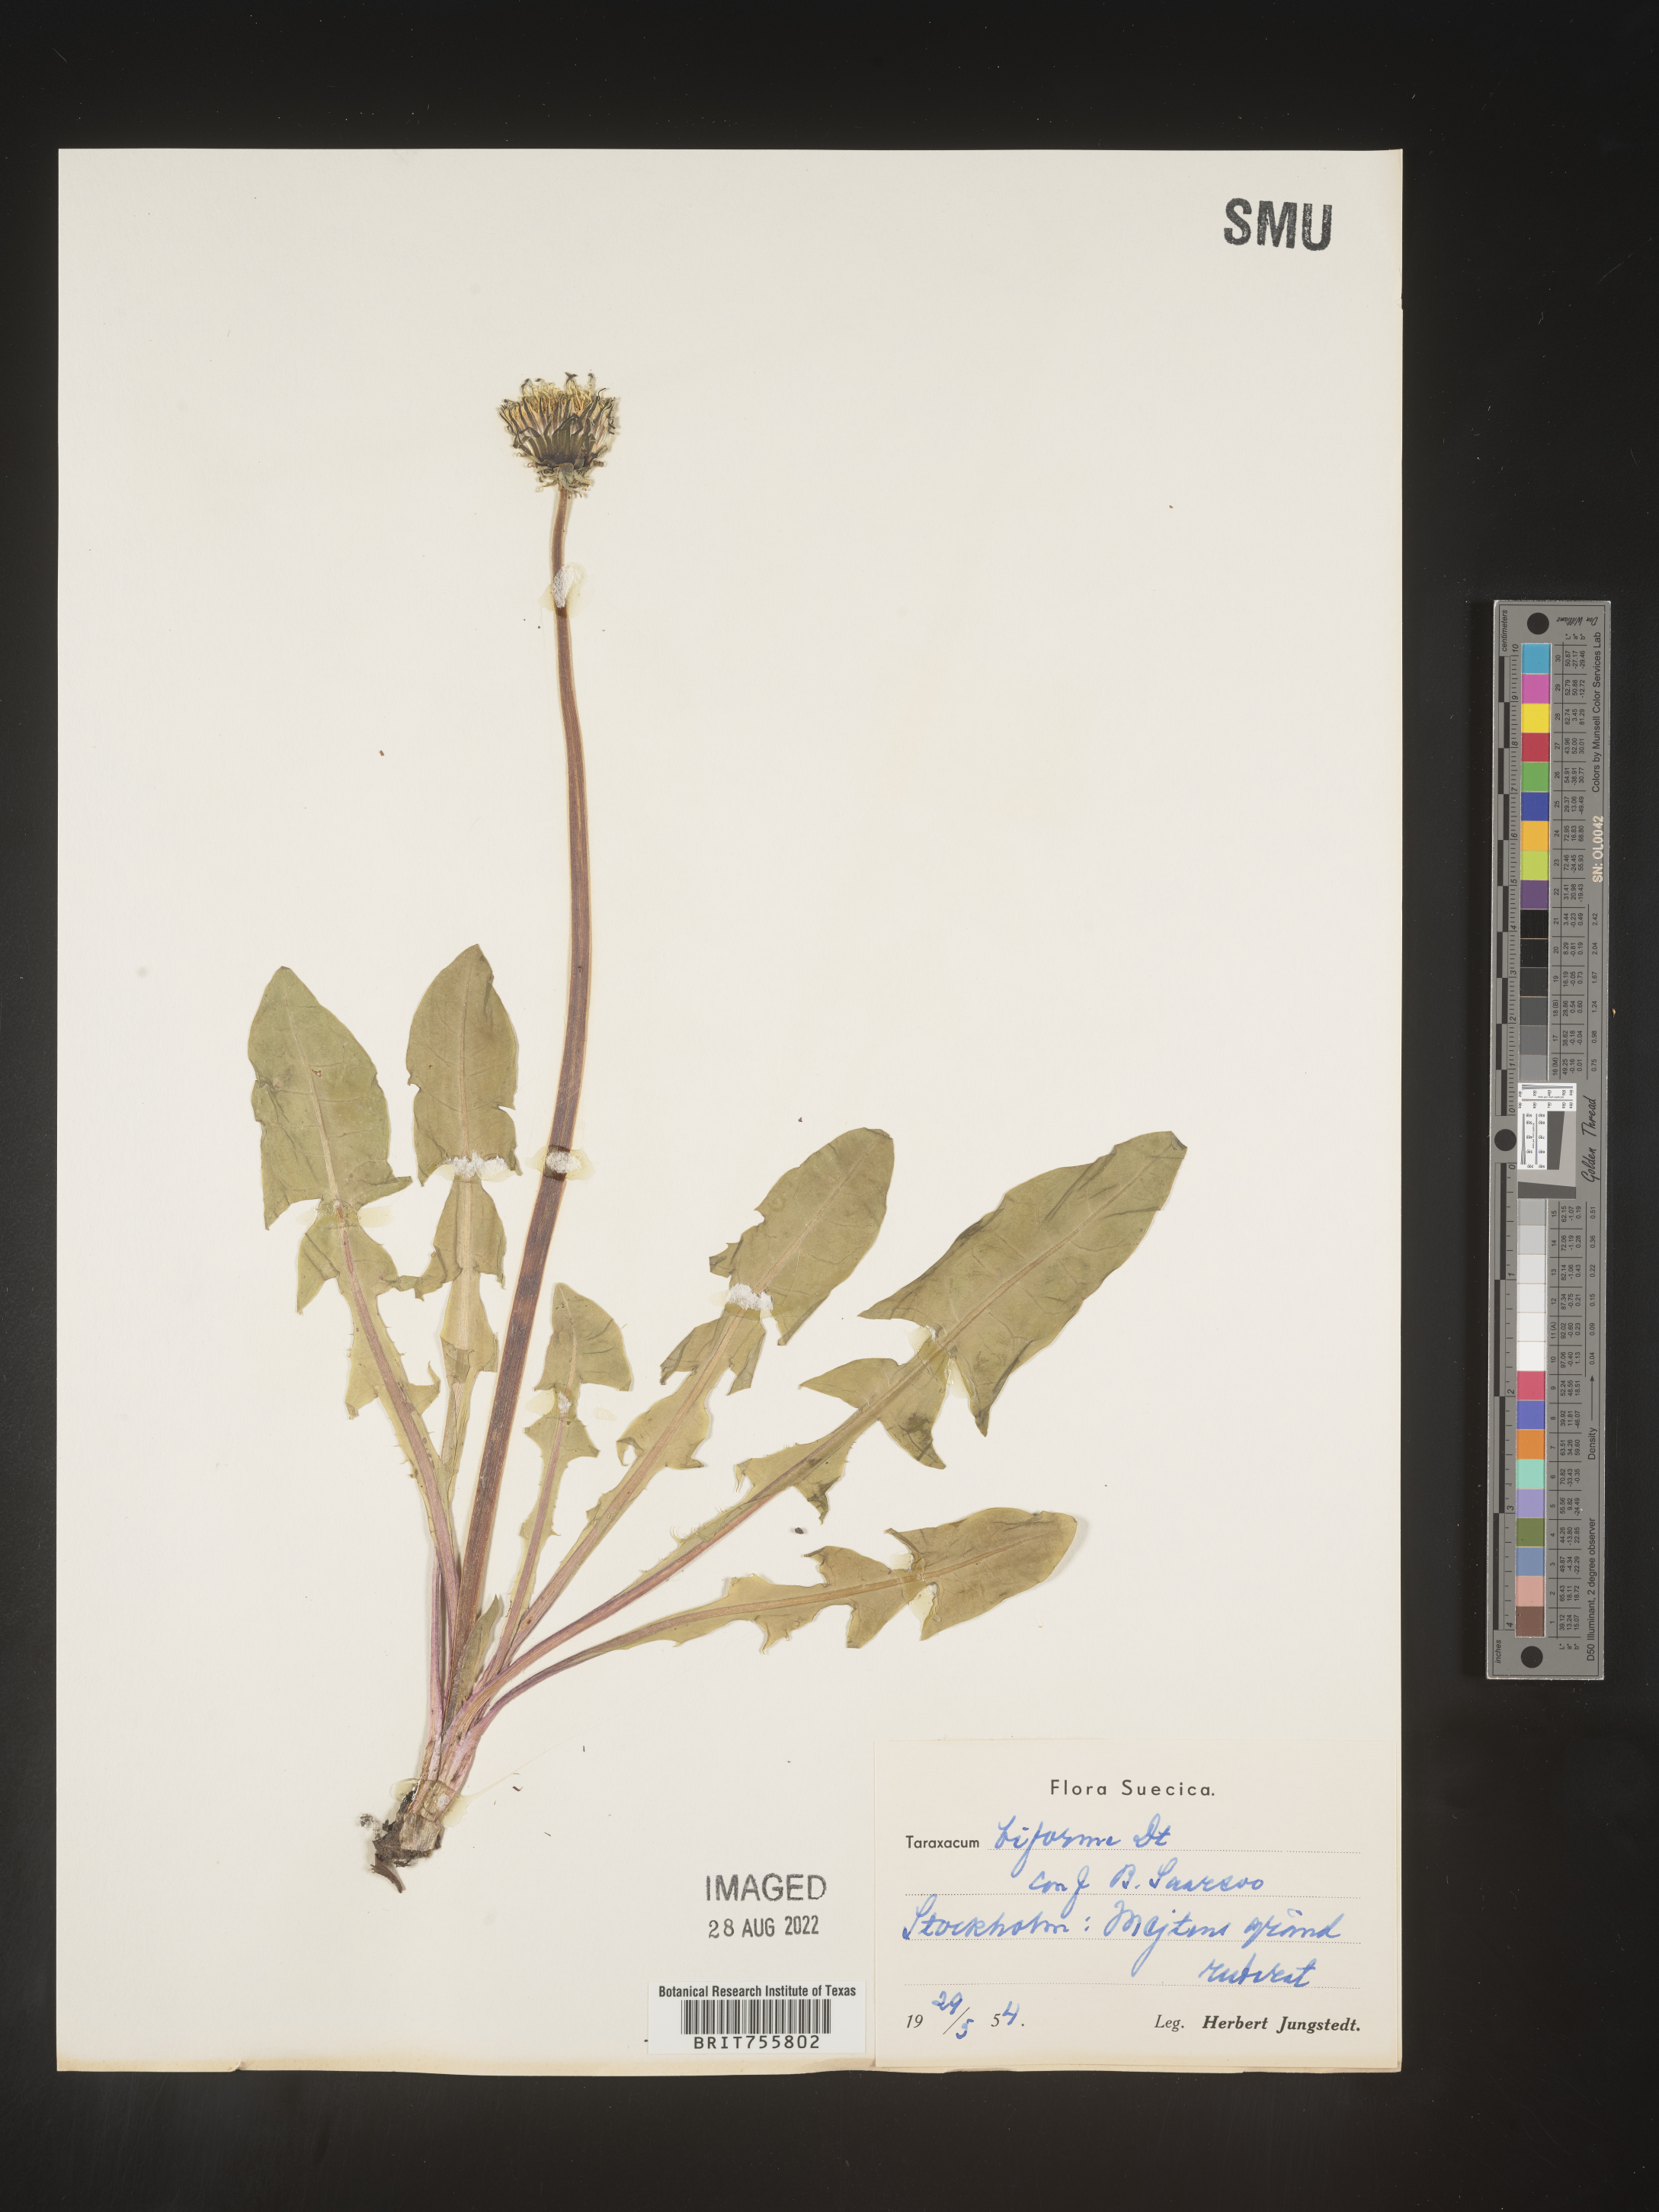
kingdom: Plantae
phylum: Tracheophyta
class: Magnoliopsida
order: Asterales
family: Asteraceae
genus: Taraxacum
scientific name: Taraxacum
